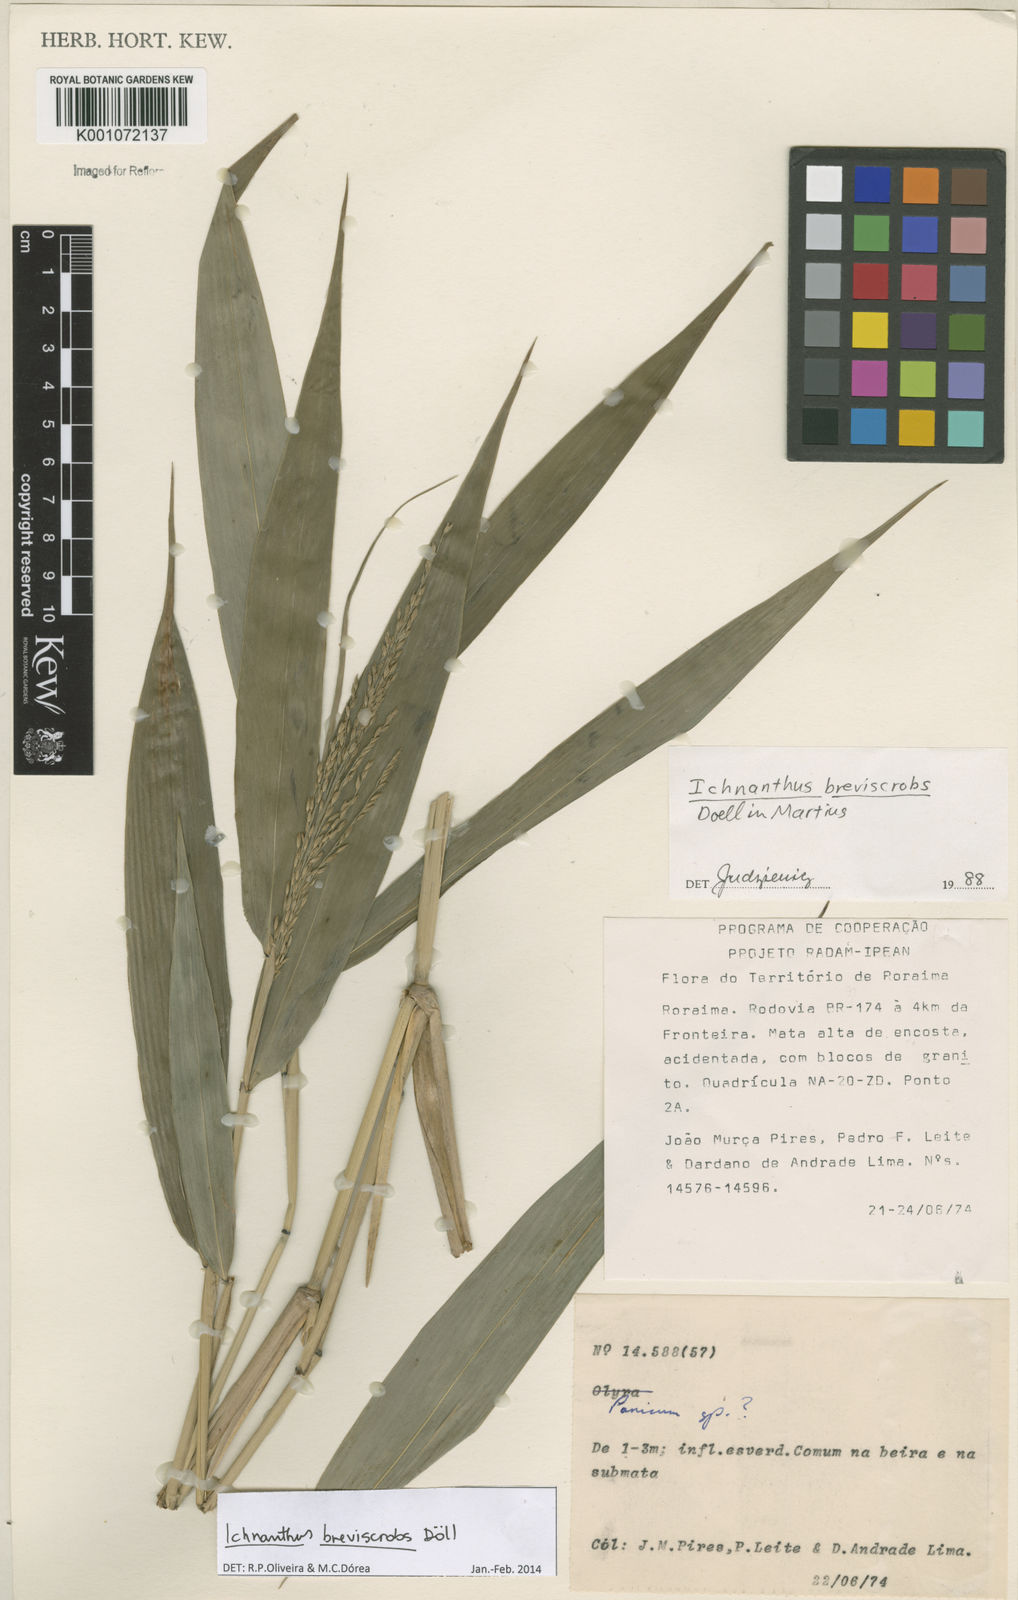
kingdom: Plantae
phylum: Tracheophyta
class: Liliopsida
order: Poales
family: Poaceae
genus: Ichnanthus
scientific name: Ichnanthus
